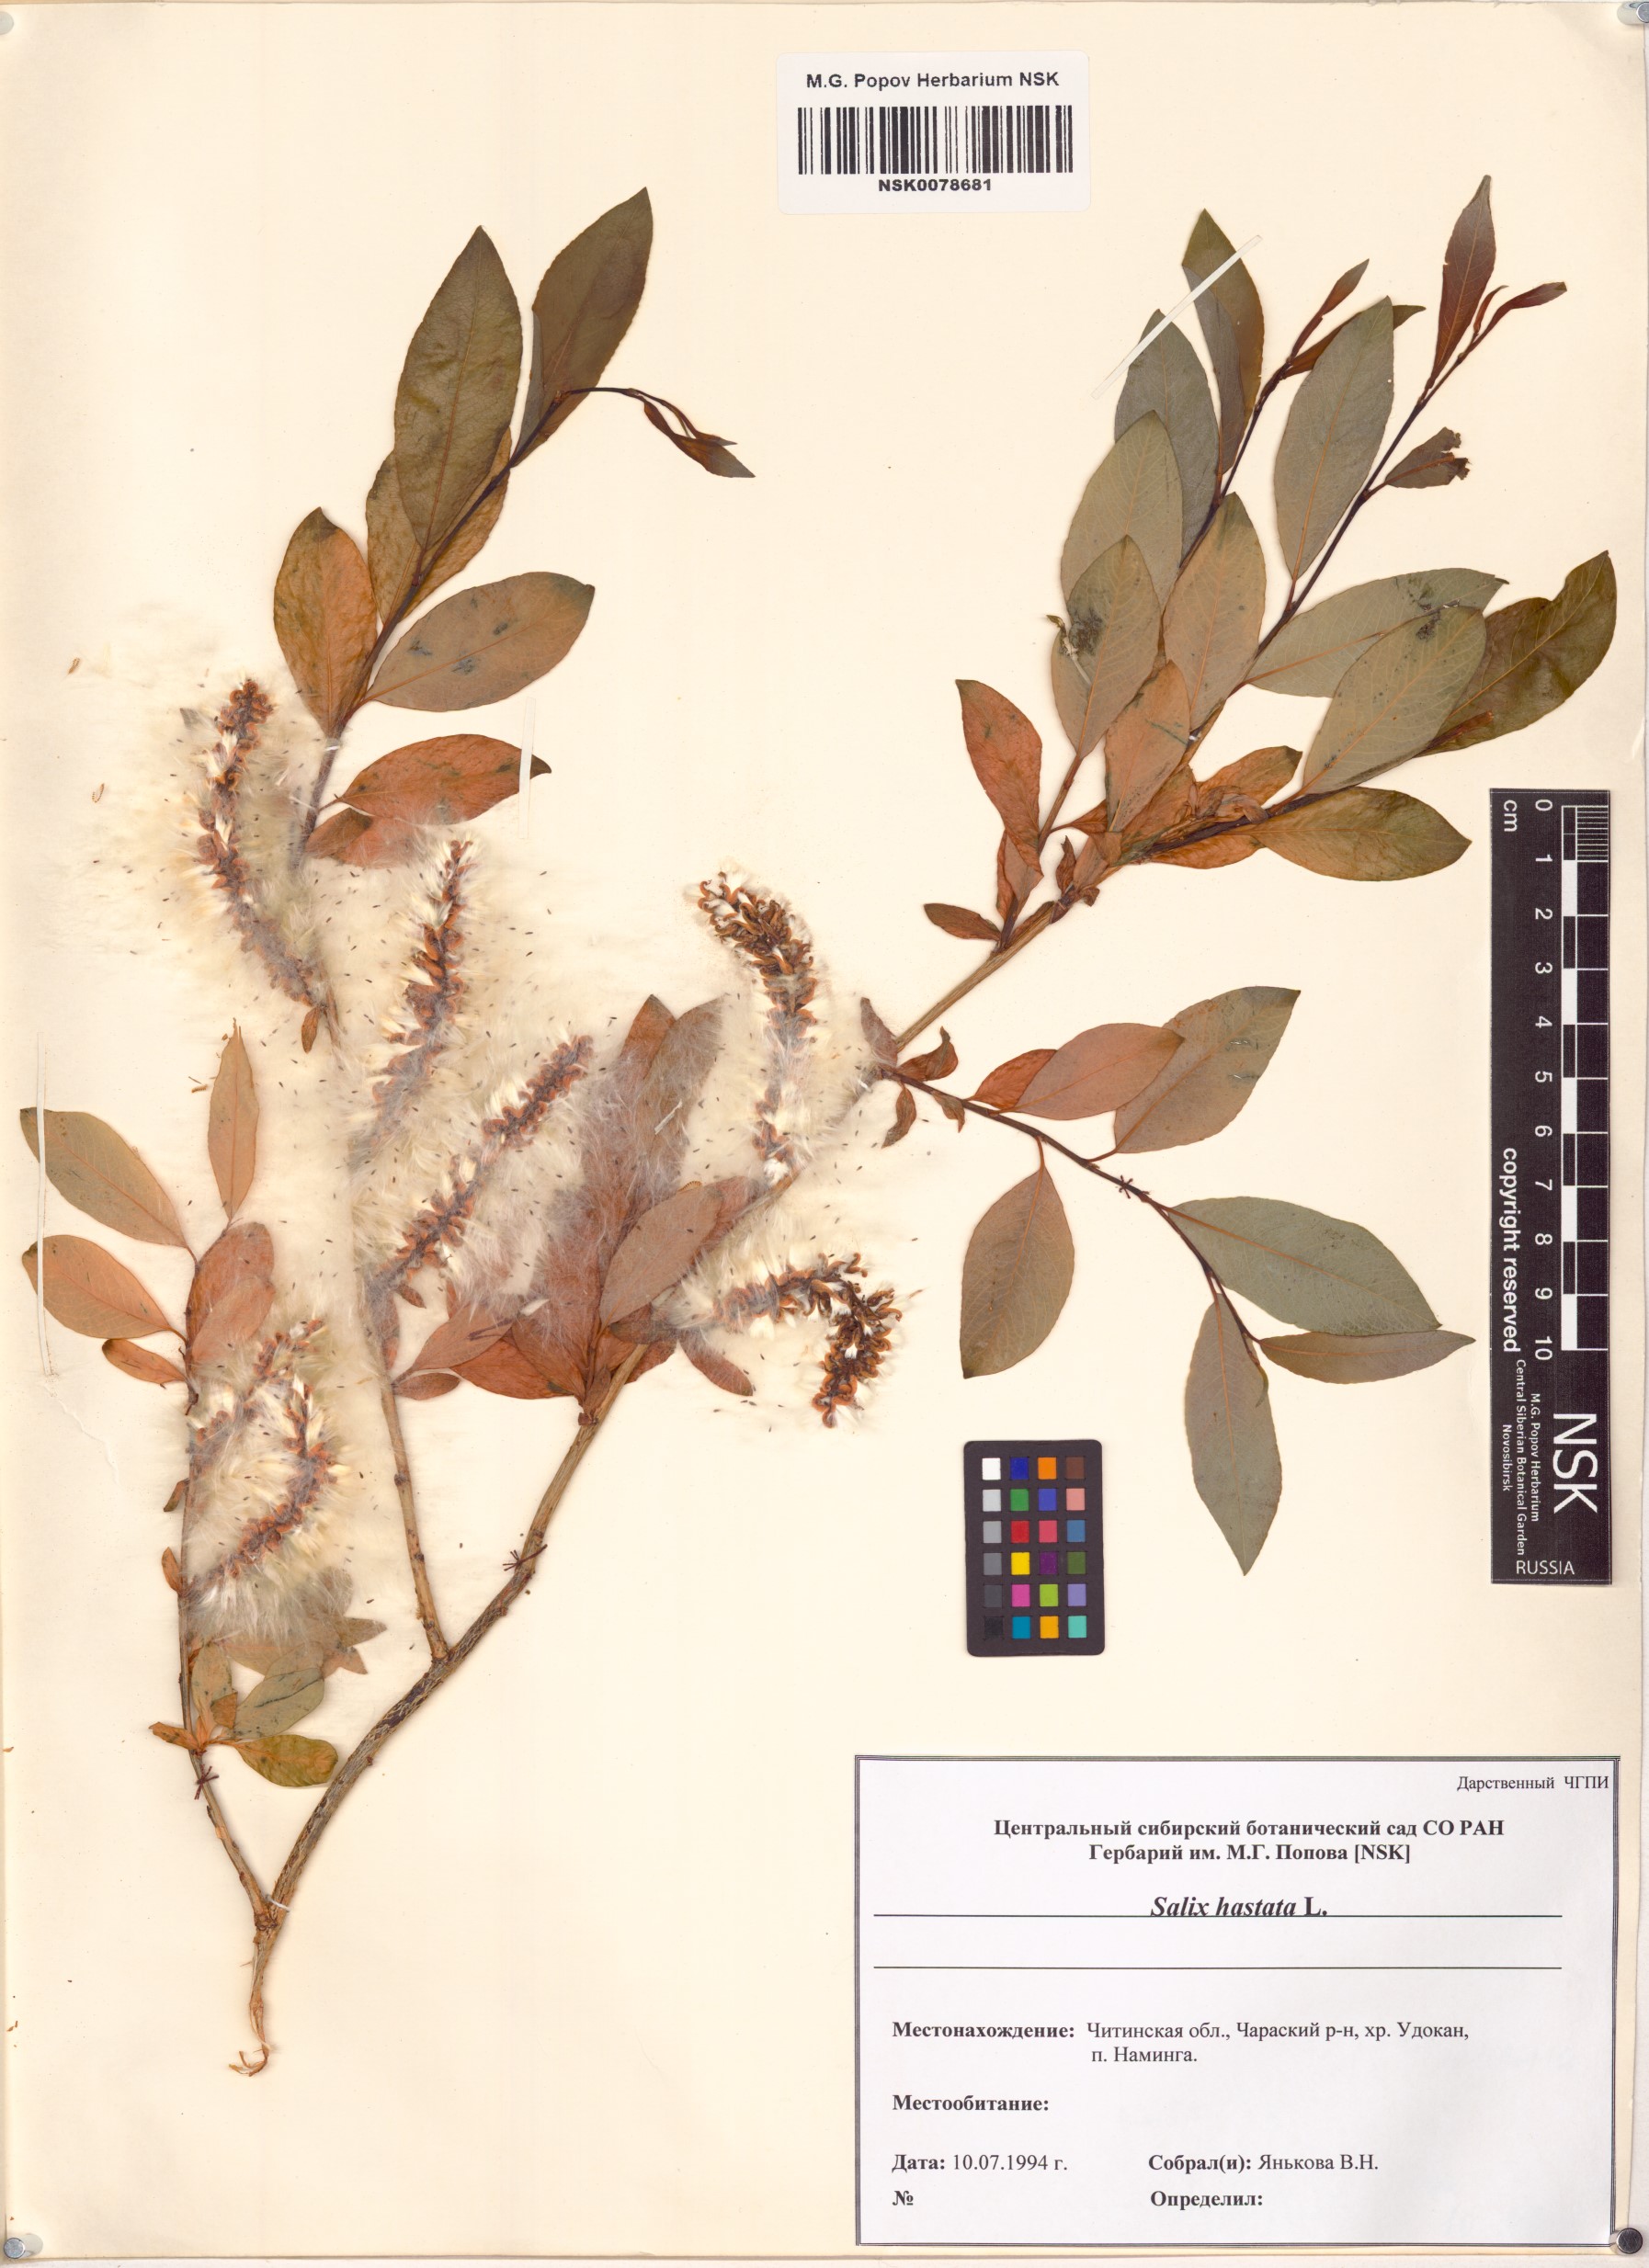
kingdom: Plantae
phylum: Tracheophyta
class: Magnoliopsida
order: Malpighiales
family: Salicaceae
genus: Salix
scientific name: Salix hastata
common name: Halberd willow
